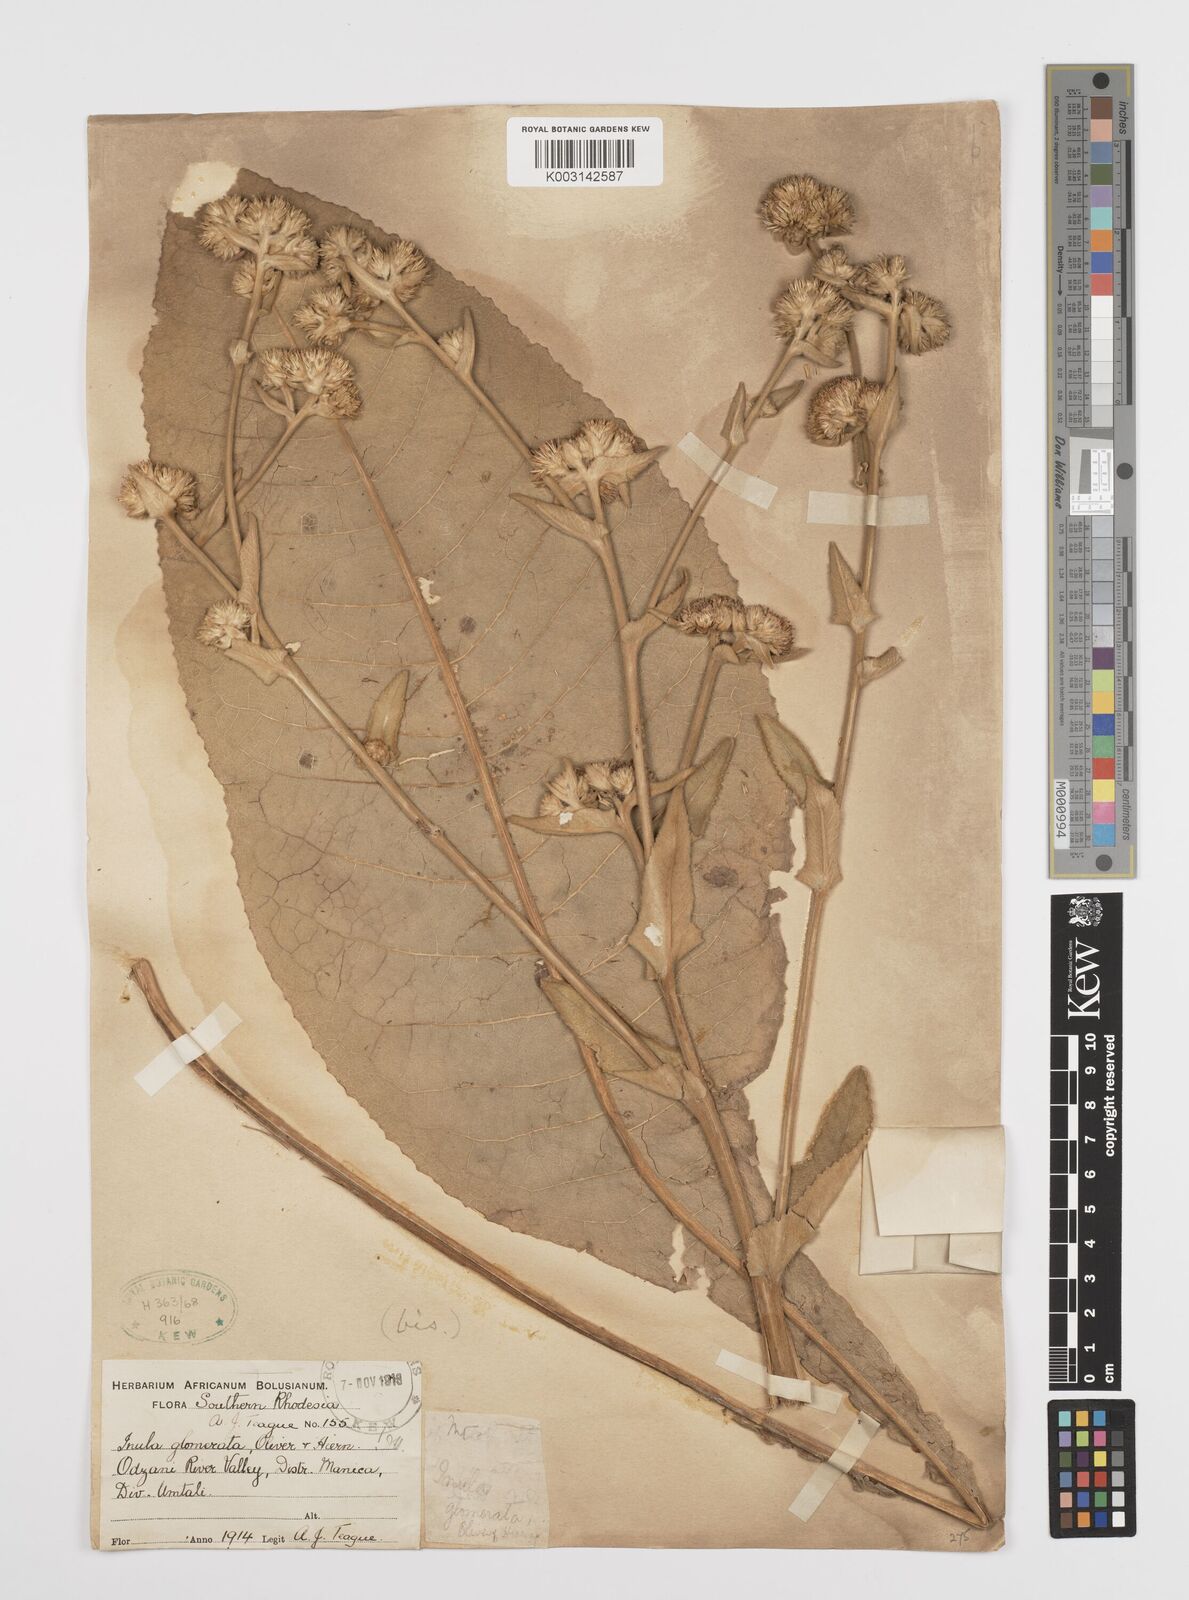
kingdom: Plantae
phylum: Tracheophyta
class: Magnoliopsida
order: Asterales
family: Asteraceae
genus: Inula
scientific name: Inula glomerata
